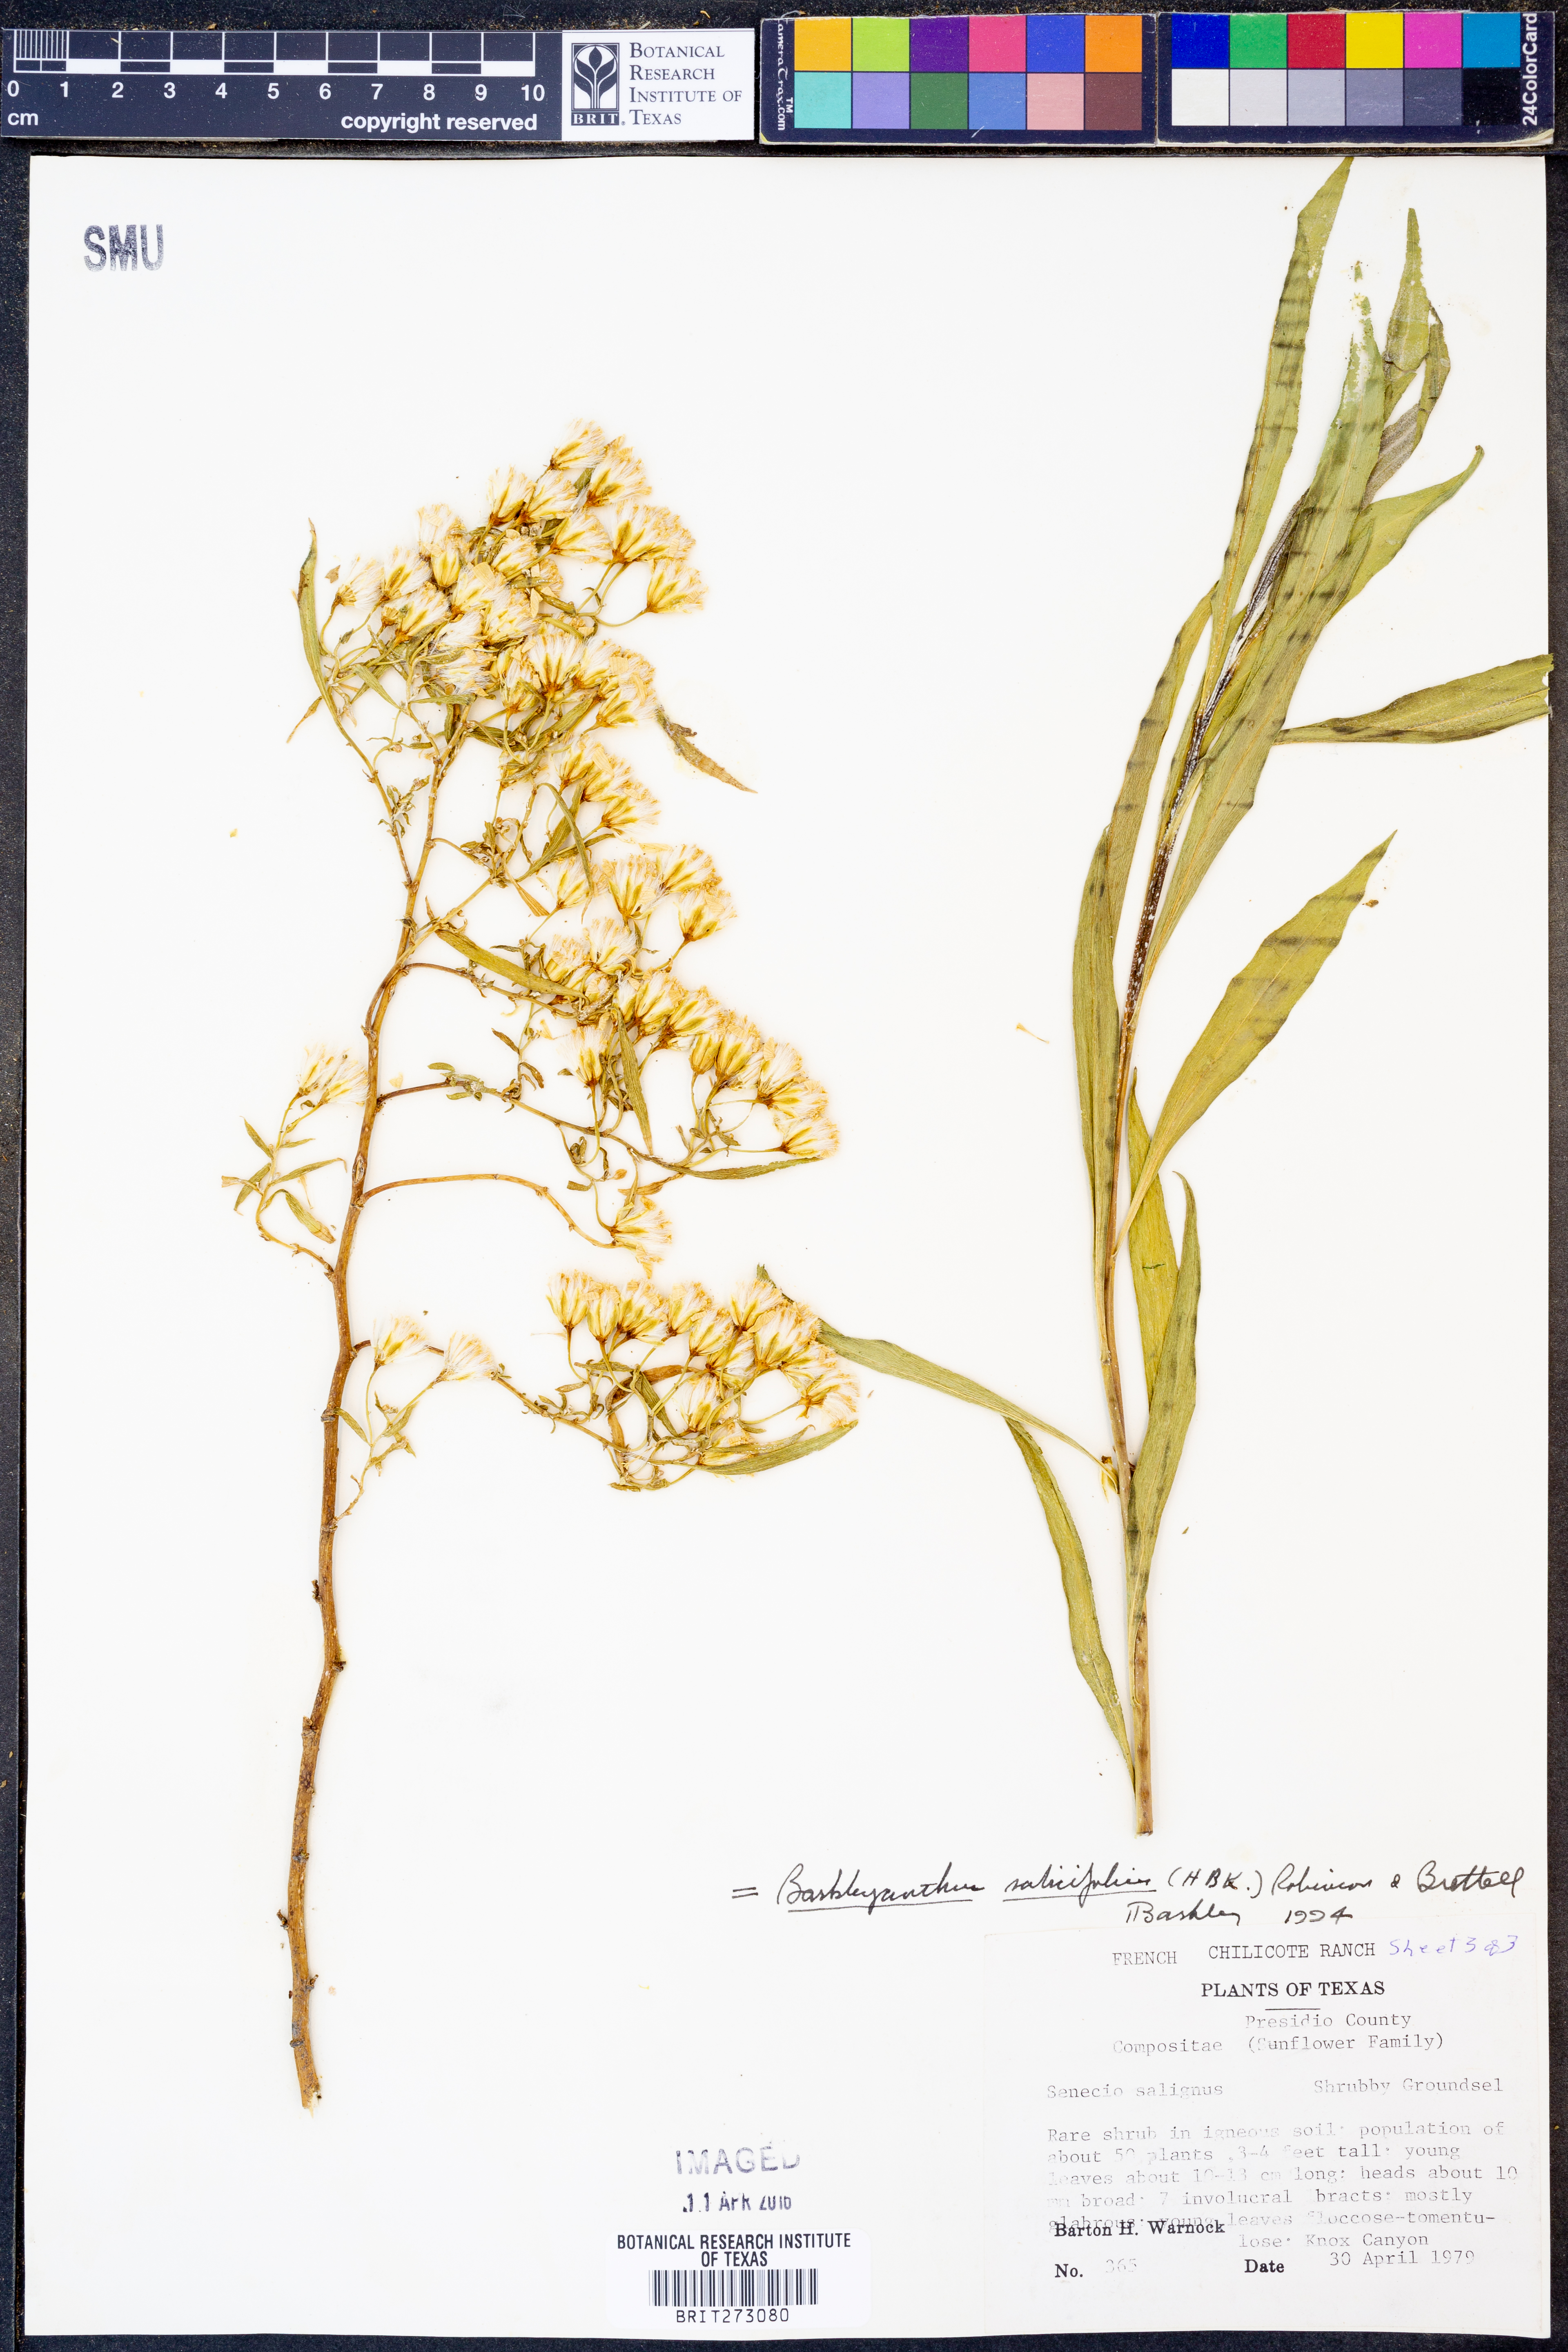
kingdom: Plantae
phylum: Tracheophyta
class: Magnoliopsida
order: Asterales
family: Asteraceae
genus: Barkleyanthus
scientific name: Barkleyanthus salicifolius
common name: Willow ragwort
